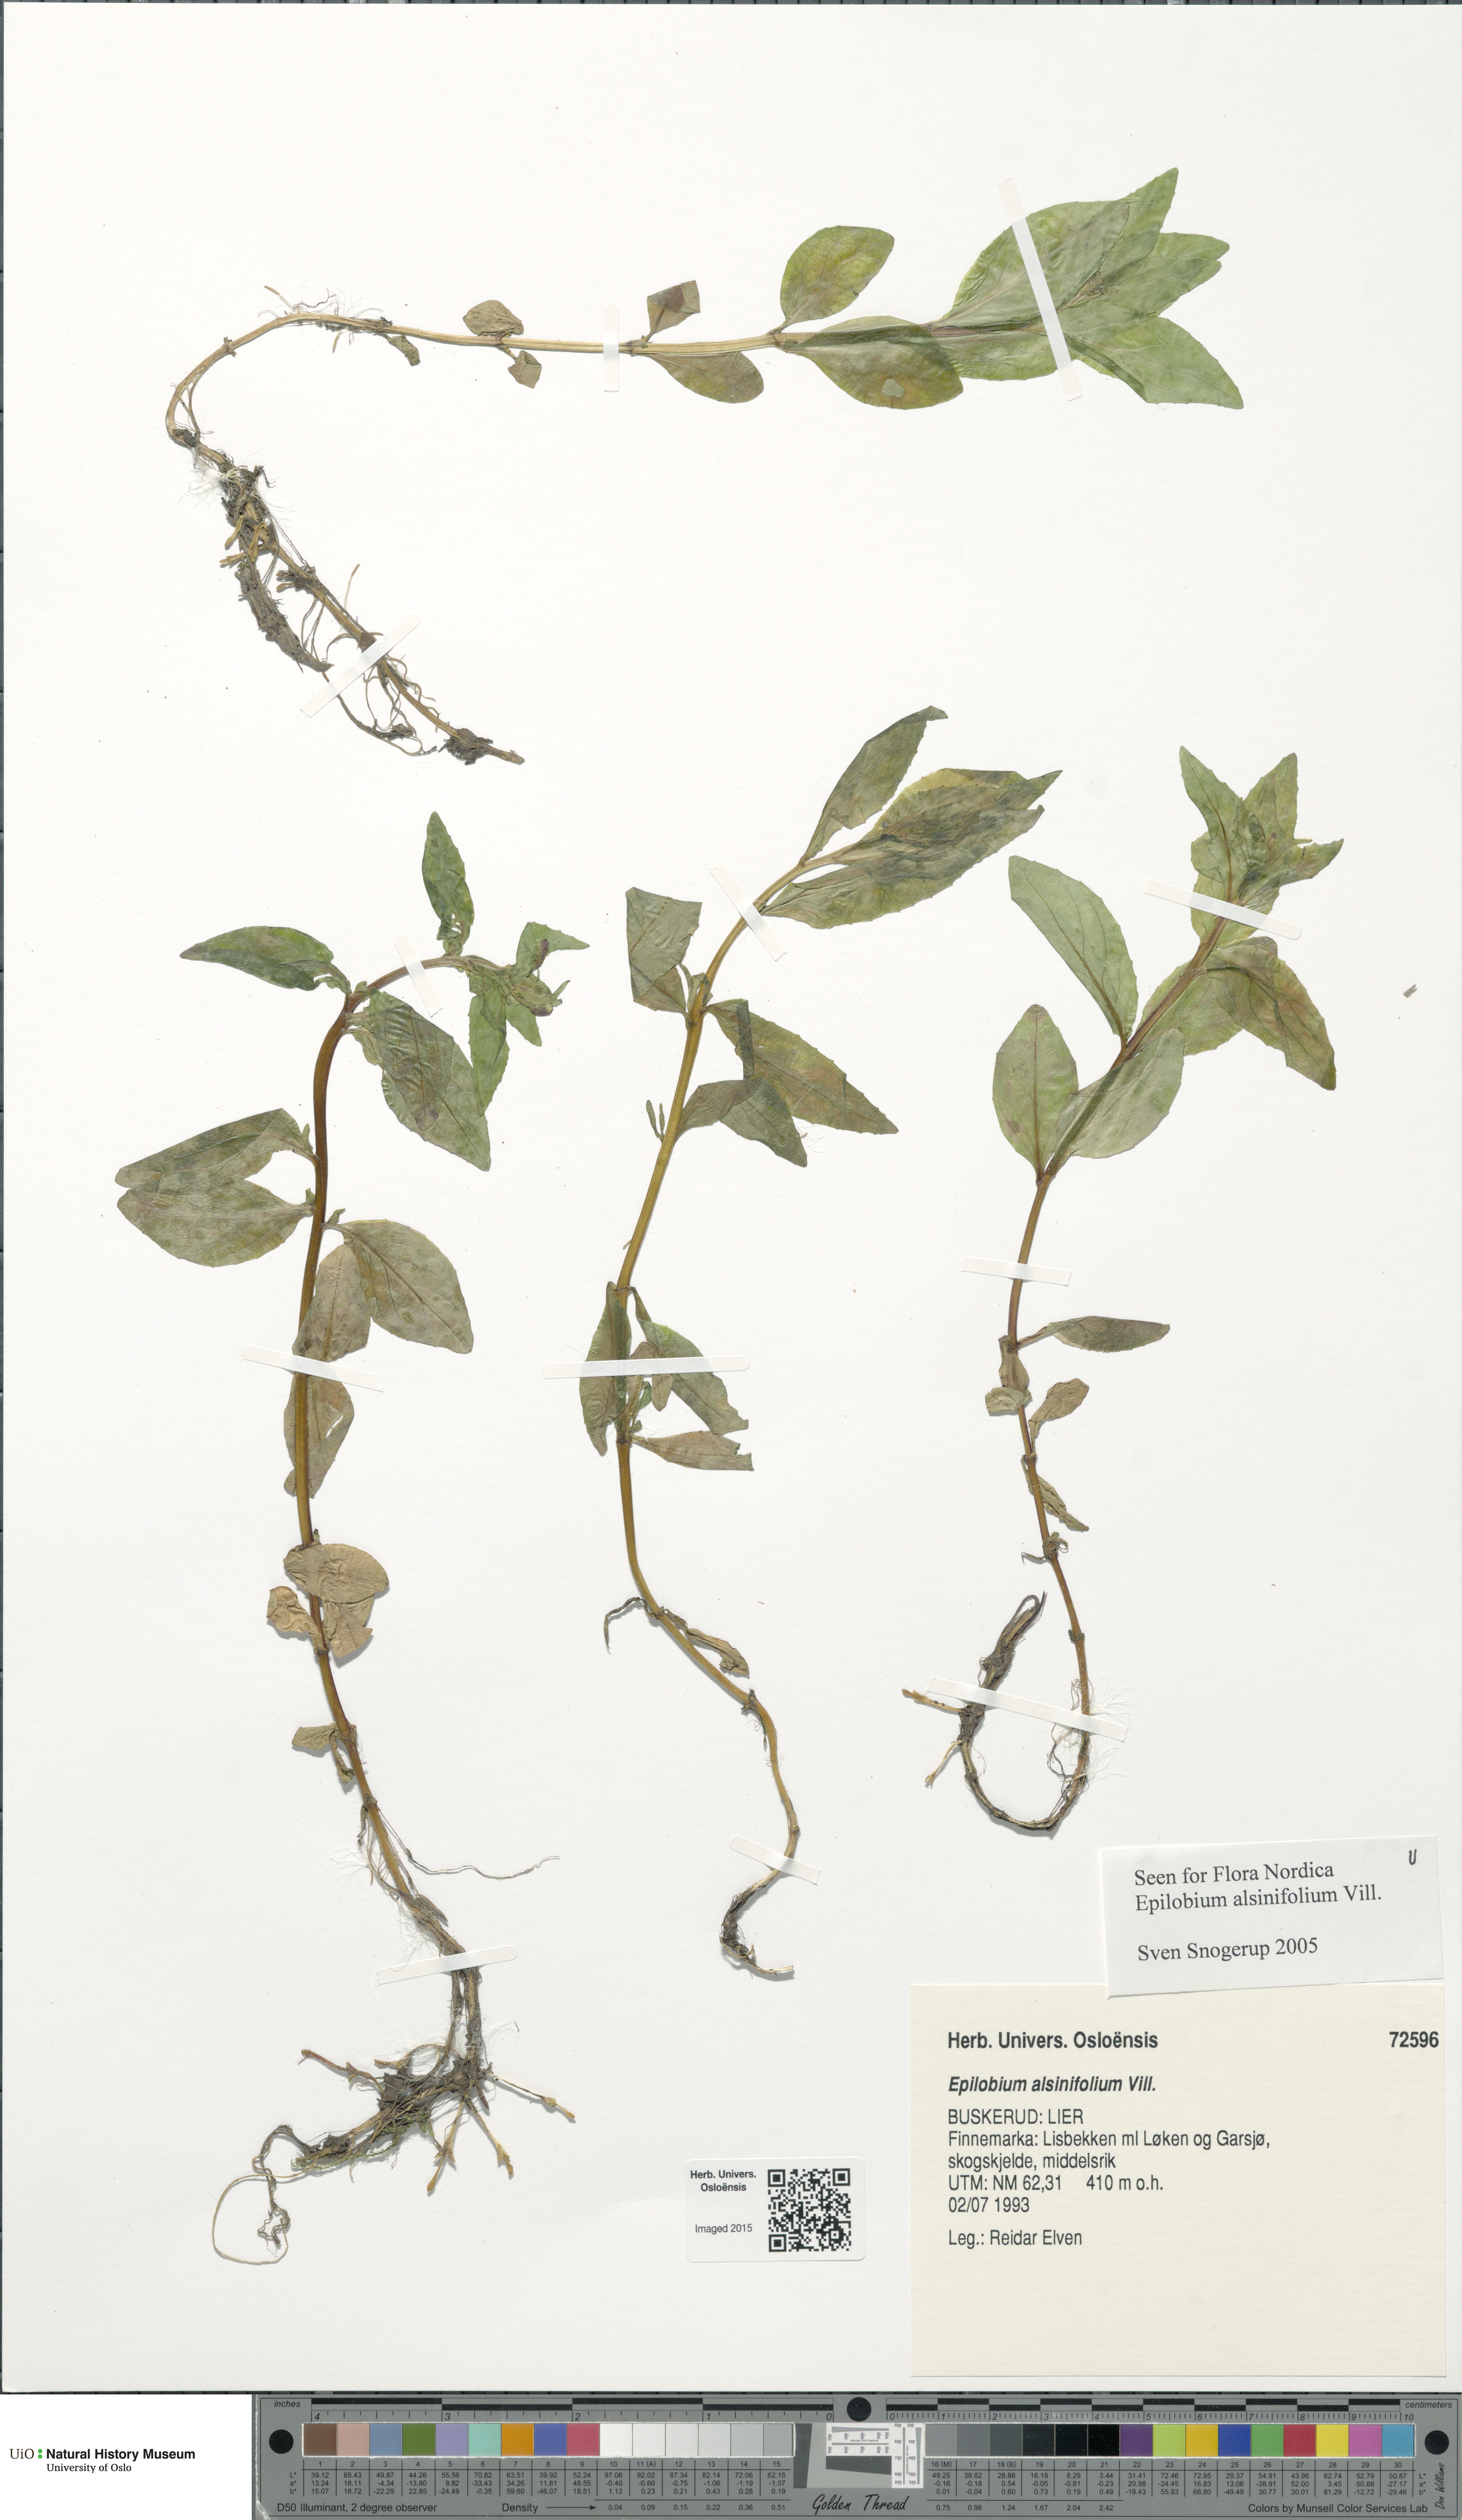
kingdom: Plantae
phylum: Tracheophyta
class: Magnoliopsida
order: Myrtales
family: Onagraceae
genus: Epilobium
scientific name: Epilobium alsinifolium
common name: Chickweed willowherb
